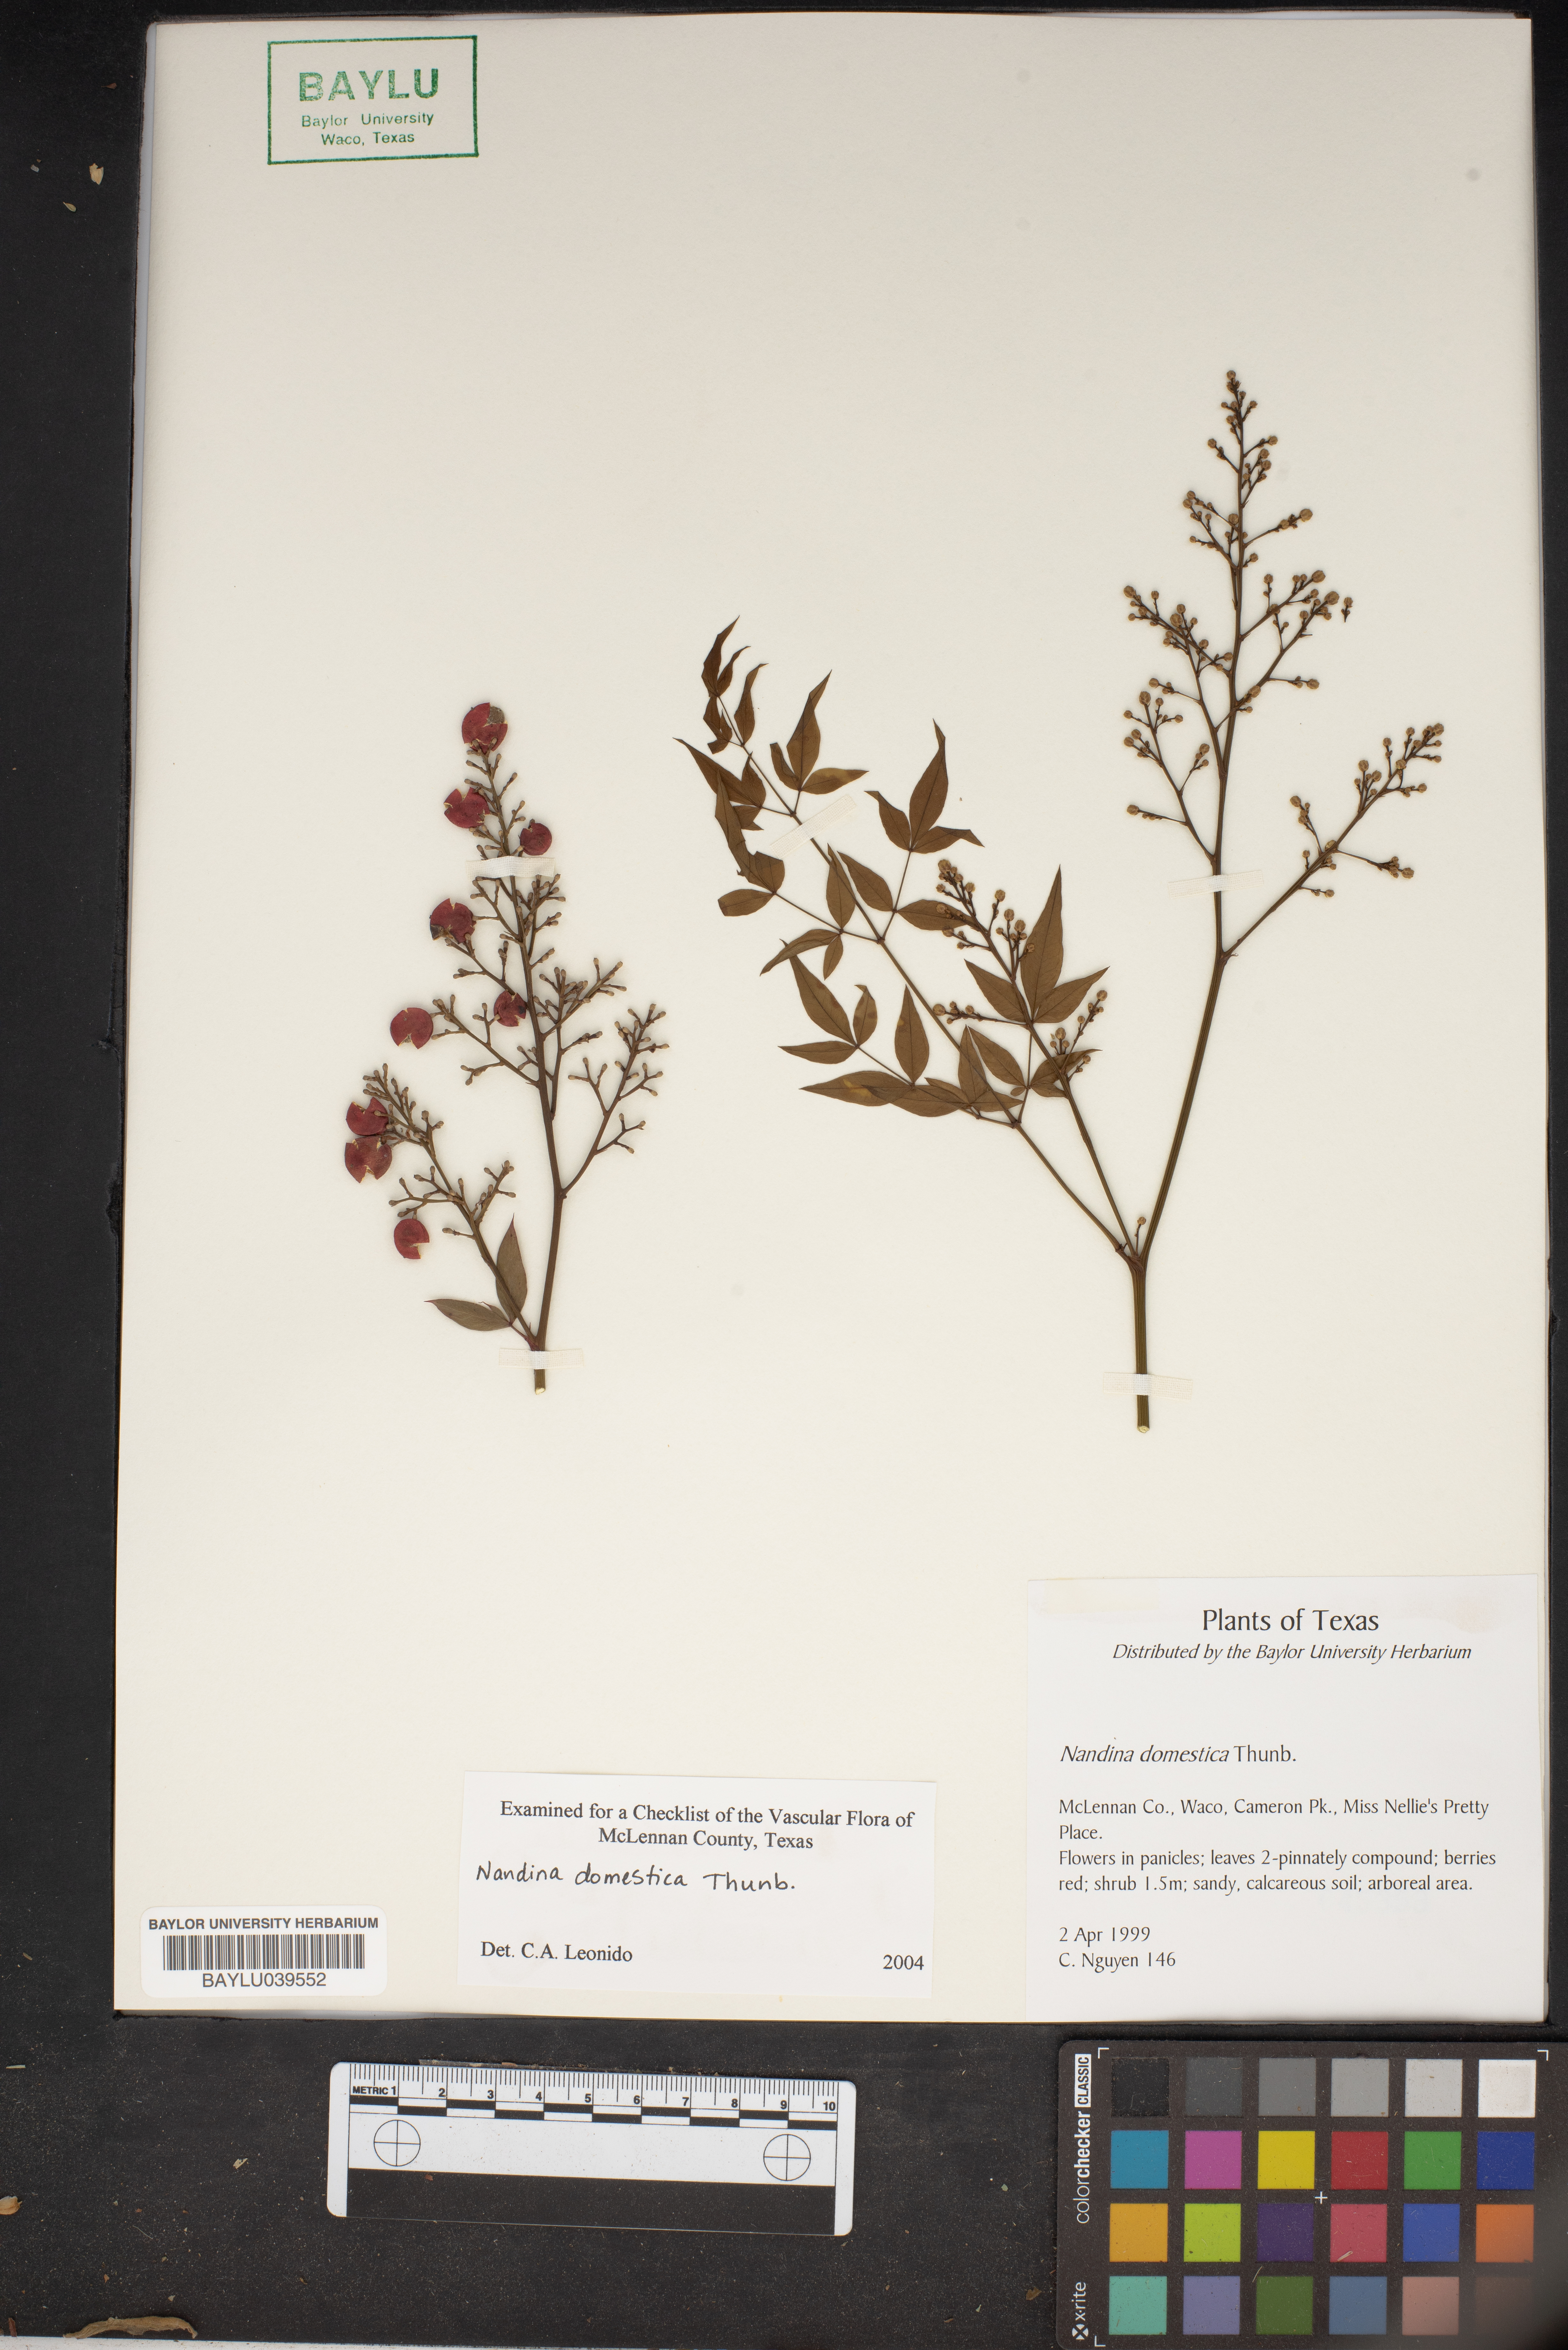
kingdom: Plantae
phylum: Tracheophyta
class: Magnoliopsida
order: Ranunculales
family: Berberidaceae
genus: Nandina
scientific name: Nandina domestica
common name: Sacred bamboo
